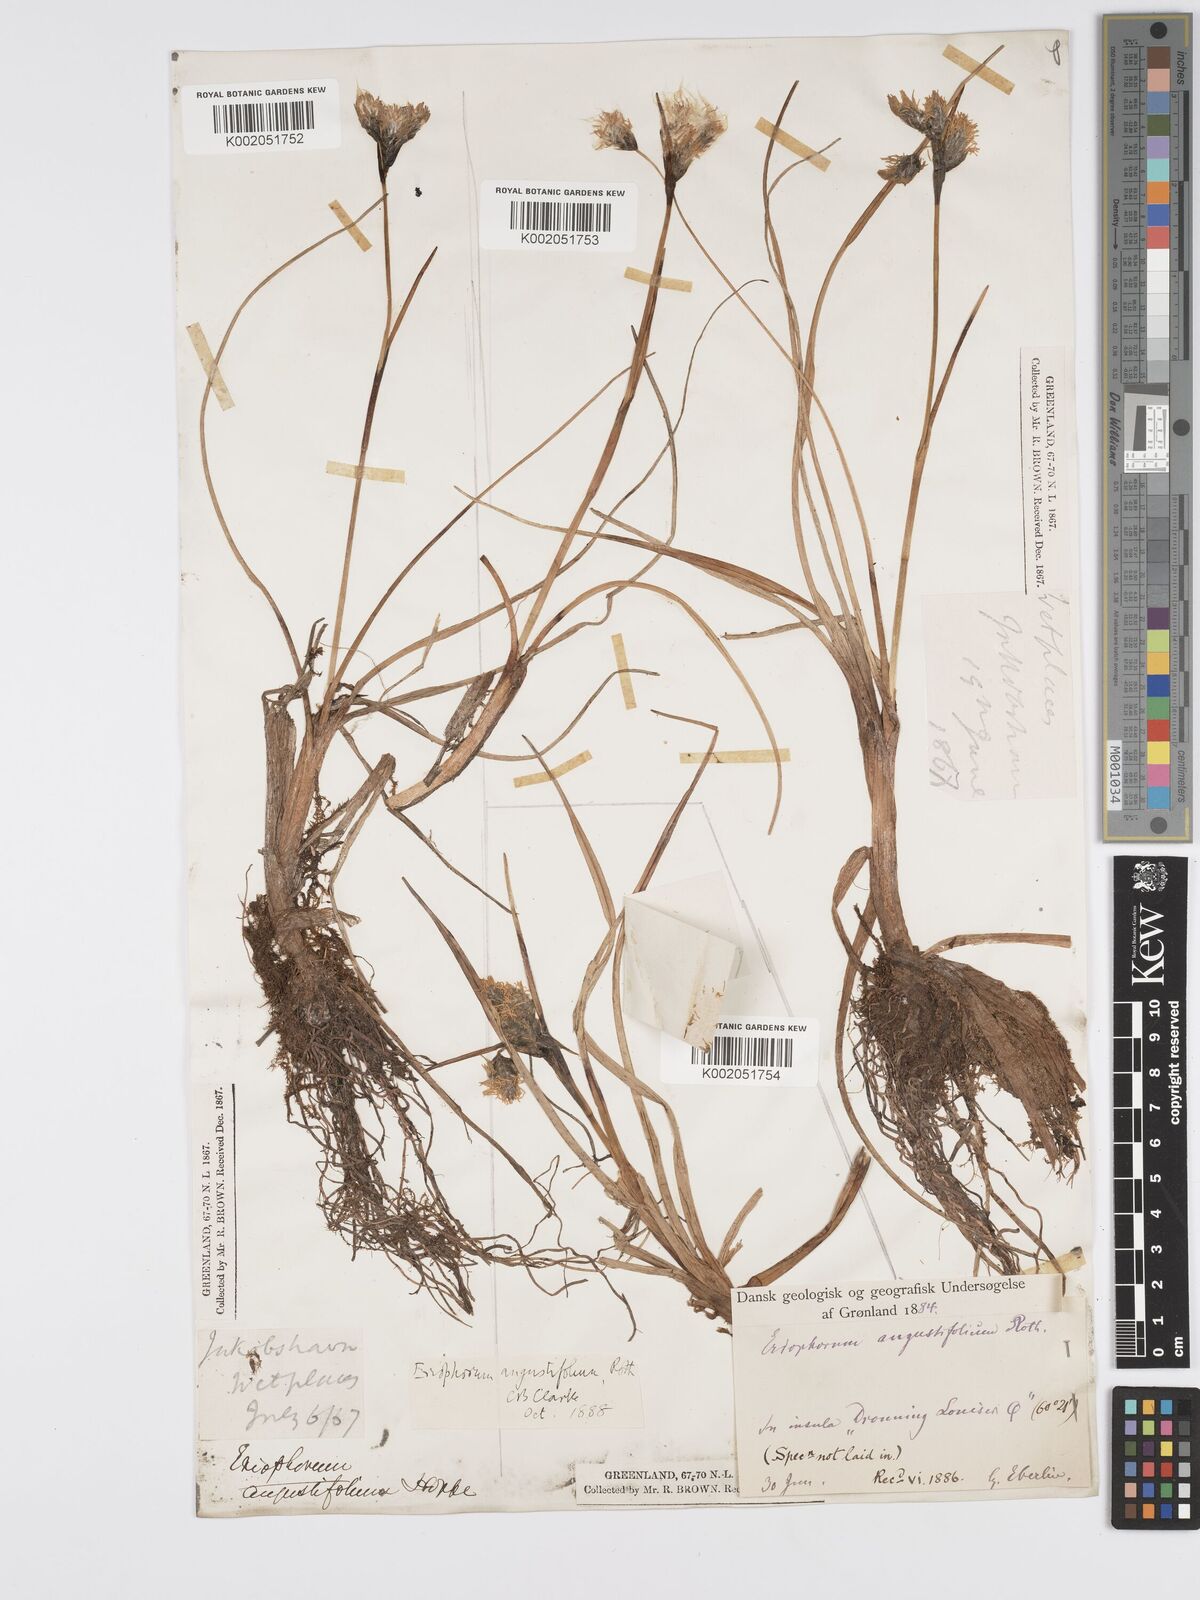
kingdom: Plantae
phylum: Tracheophyta
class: Liliopsida
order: Poales
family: Cyperaceae
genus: Eriophorum
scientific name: Eriophorum angustifolium
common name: Common cottongrass
